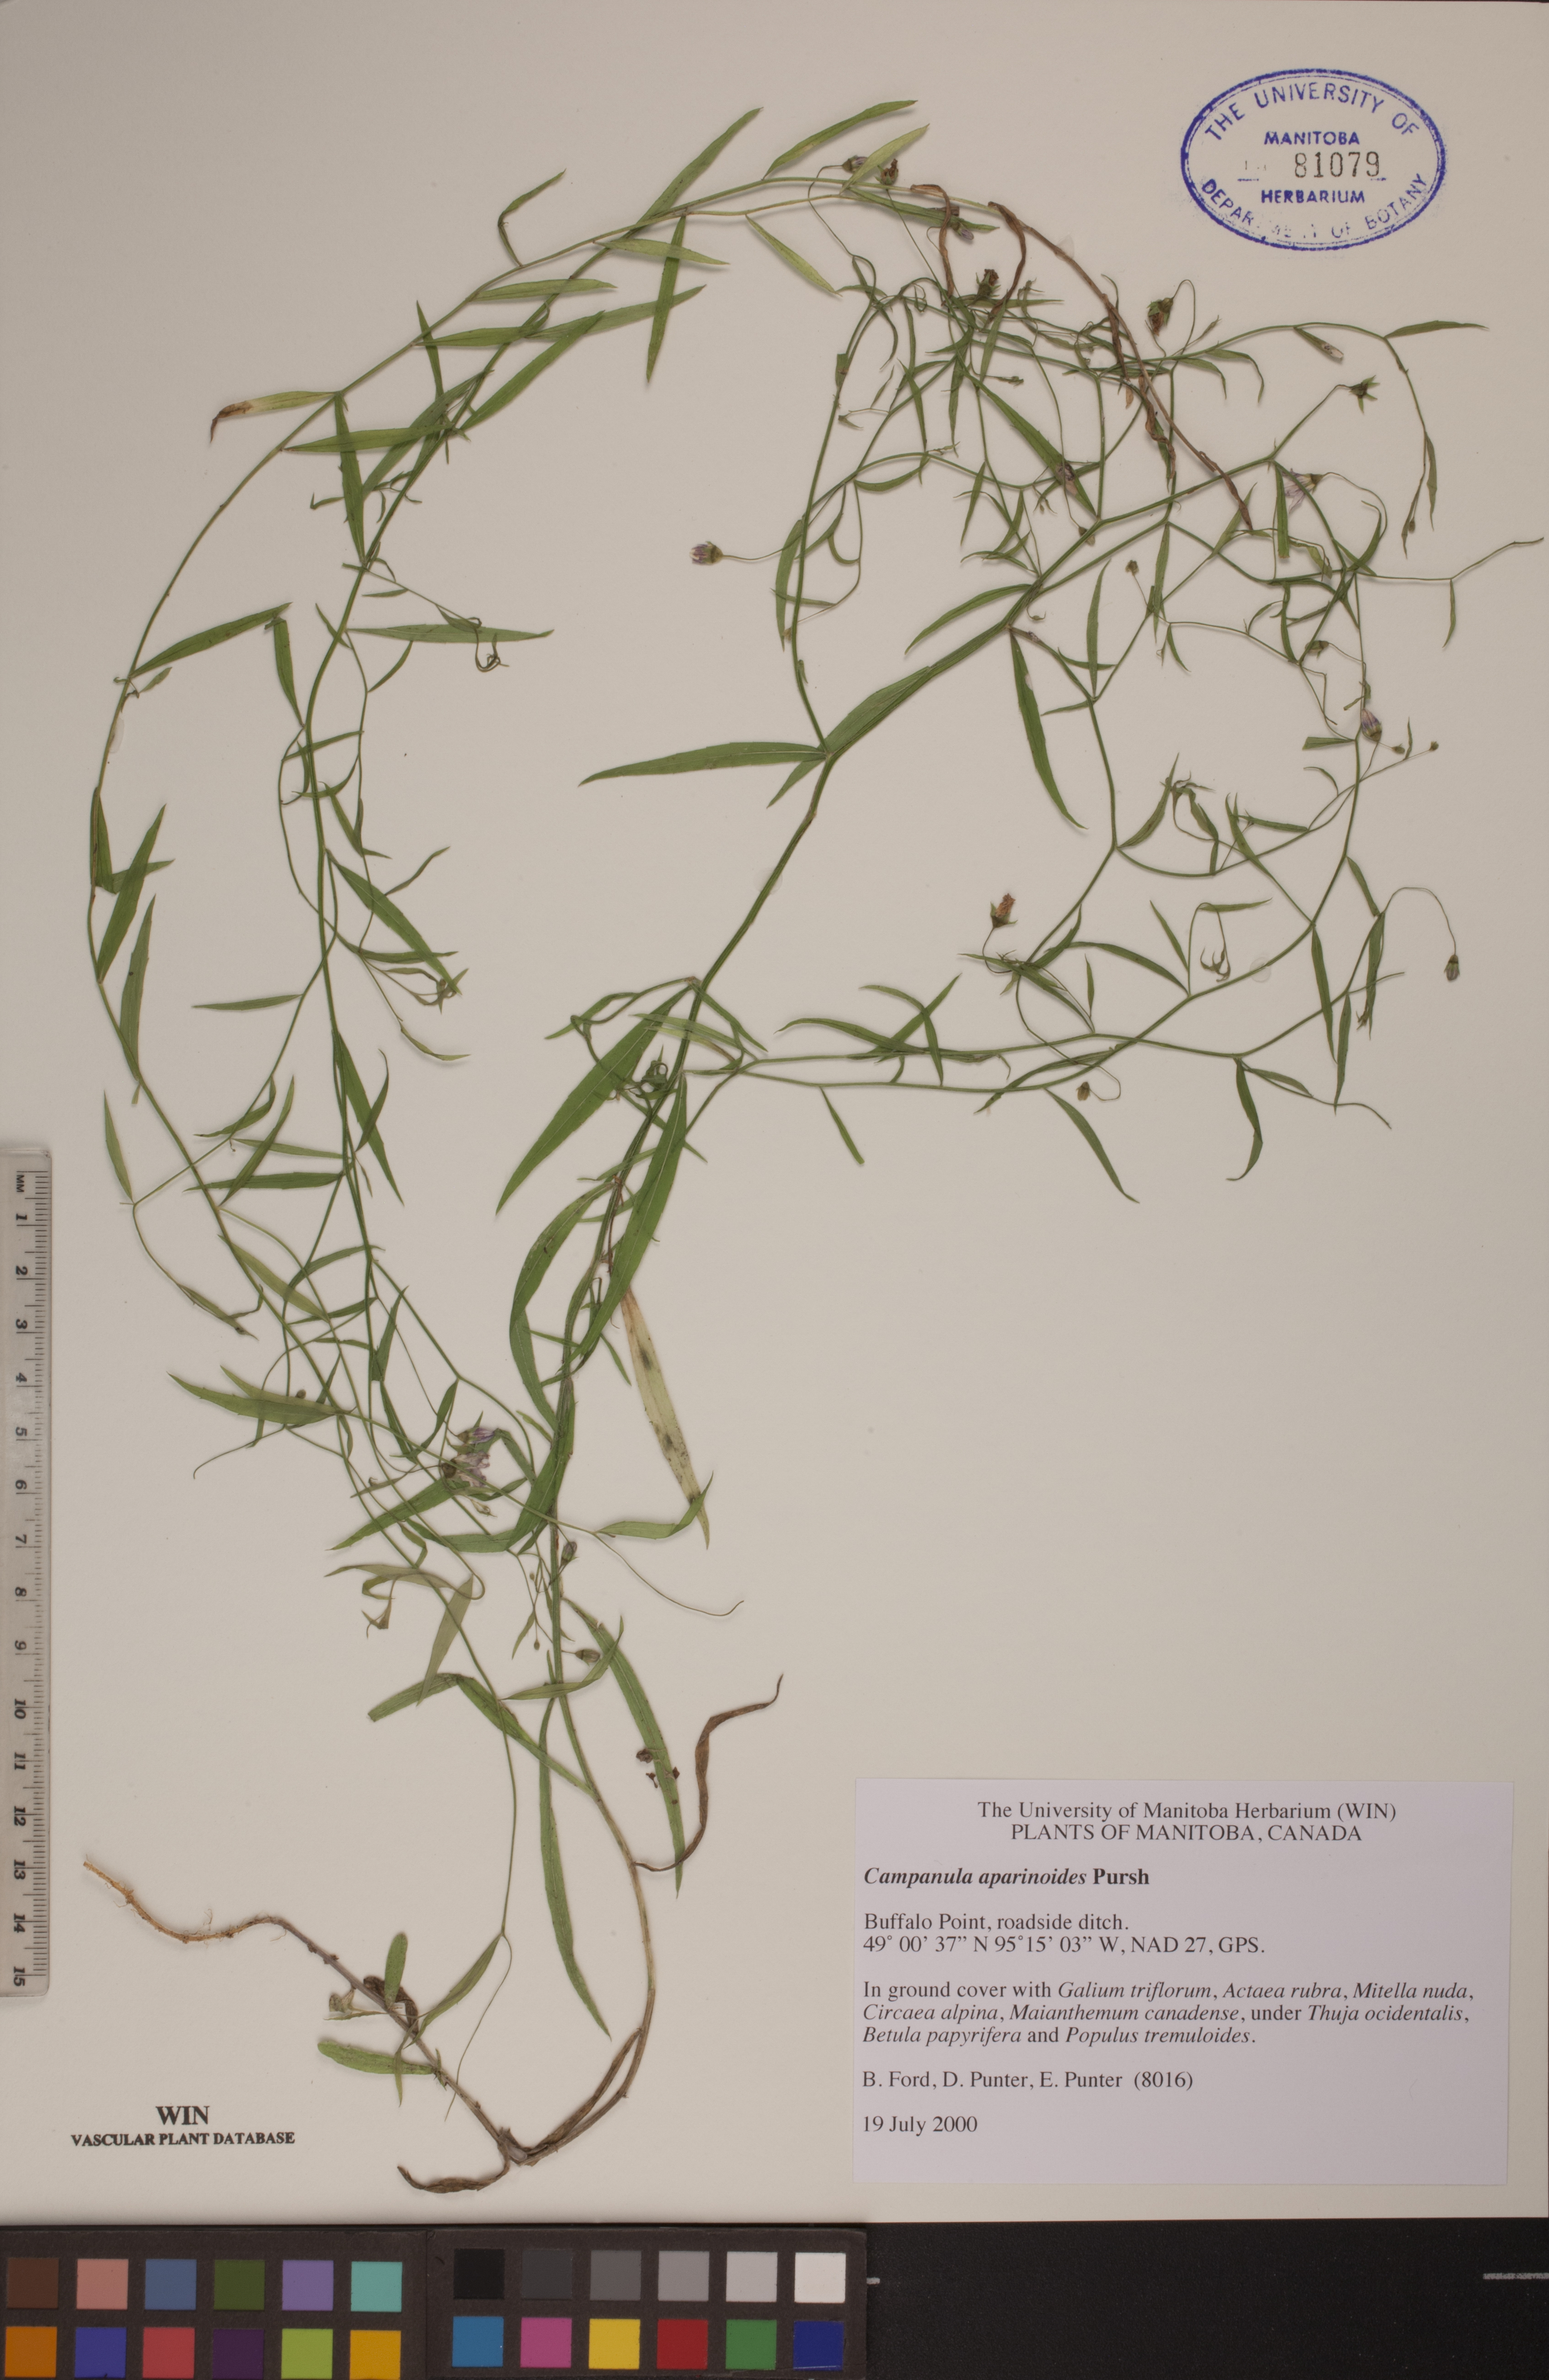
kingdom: Plantae
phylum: Tracheophyta
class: Magnoliopsida
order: Asterales
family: Campanulaceae
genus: Palustricodon
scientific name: Palustricodon aparinoides
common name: Bedstraw bellflower
